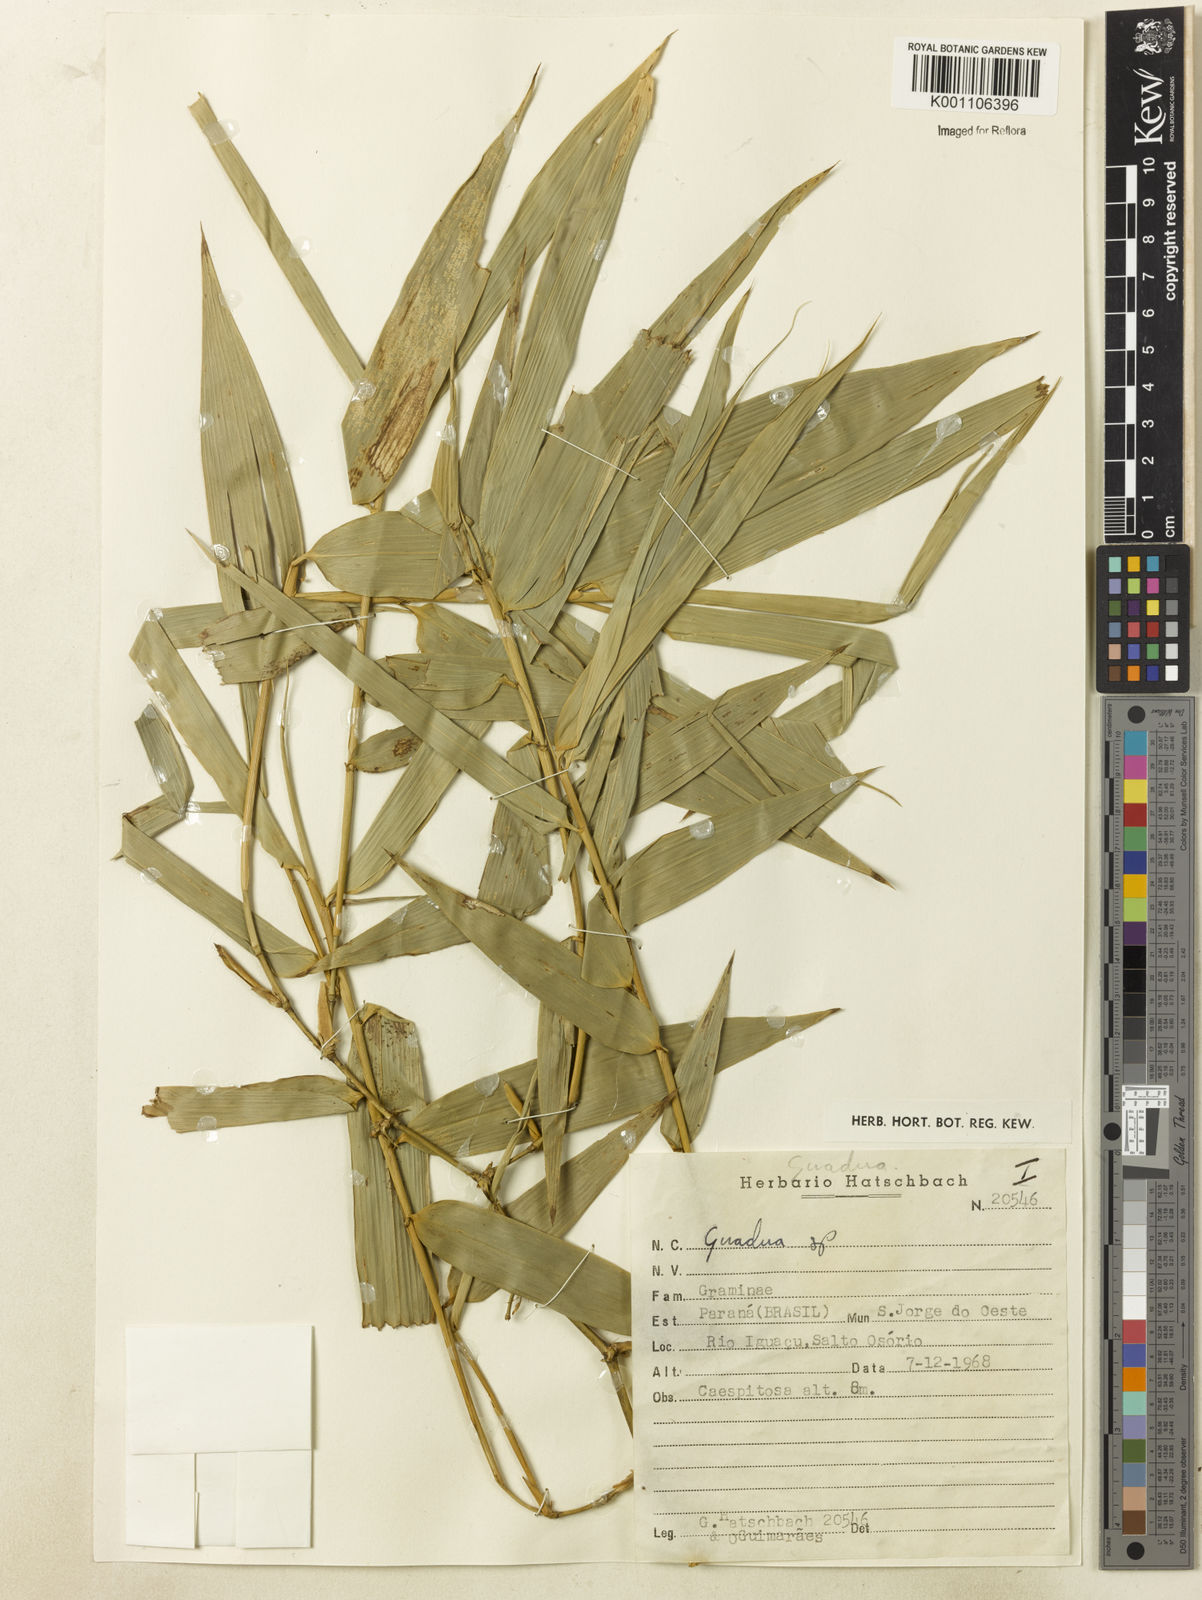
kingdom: Plantae
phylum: Tracheophyta
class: Liliopsida
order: Poales
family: Poaceae
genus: Guadua
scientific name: Guadua
